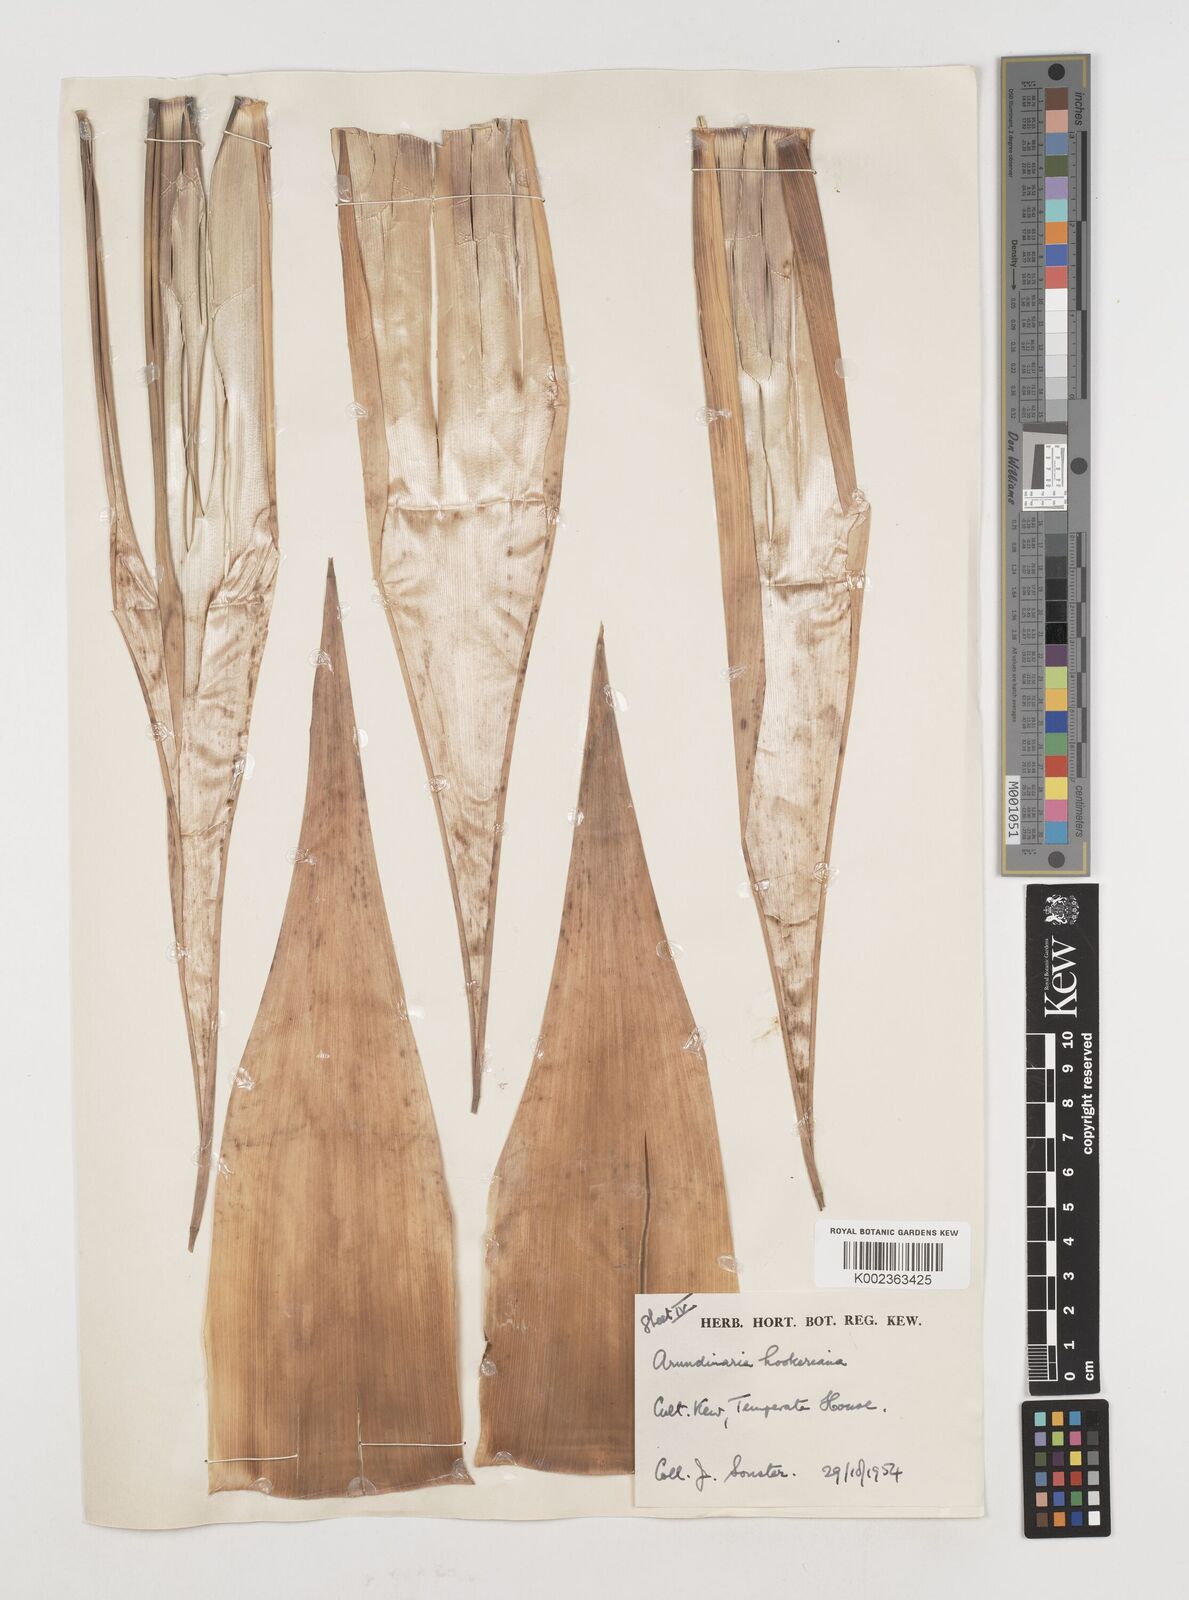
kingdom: Plantae
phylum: Tracheophyta
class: Liliopsida
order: Poales
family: Poaceae
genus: Himalayacalamus
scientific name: Himalayacalamus hookerianus
